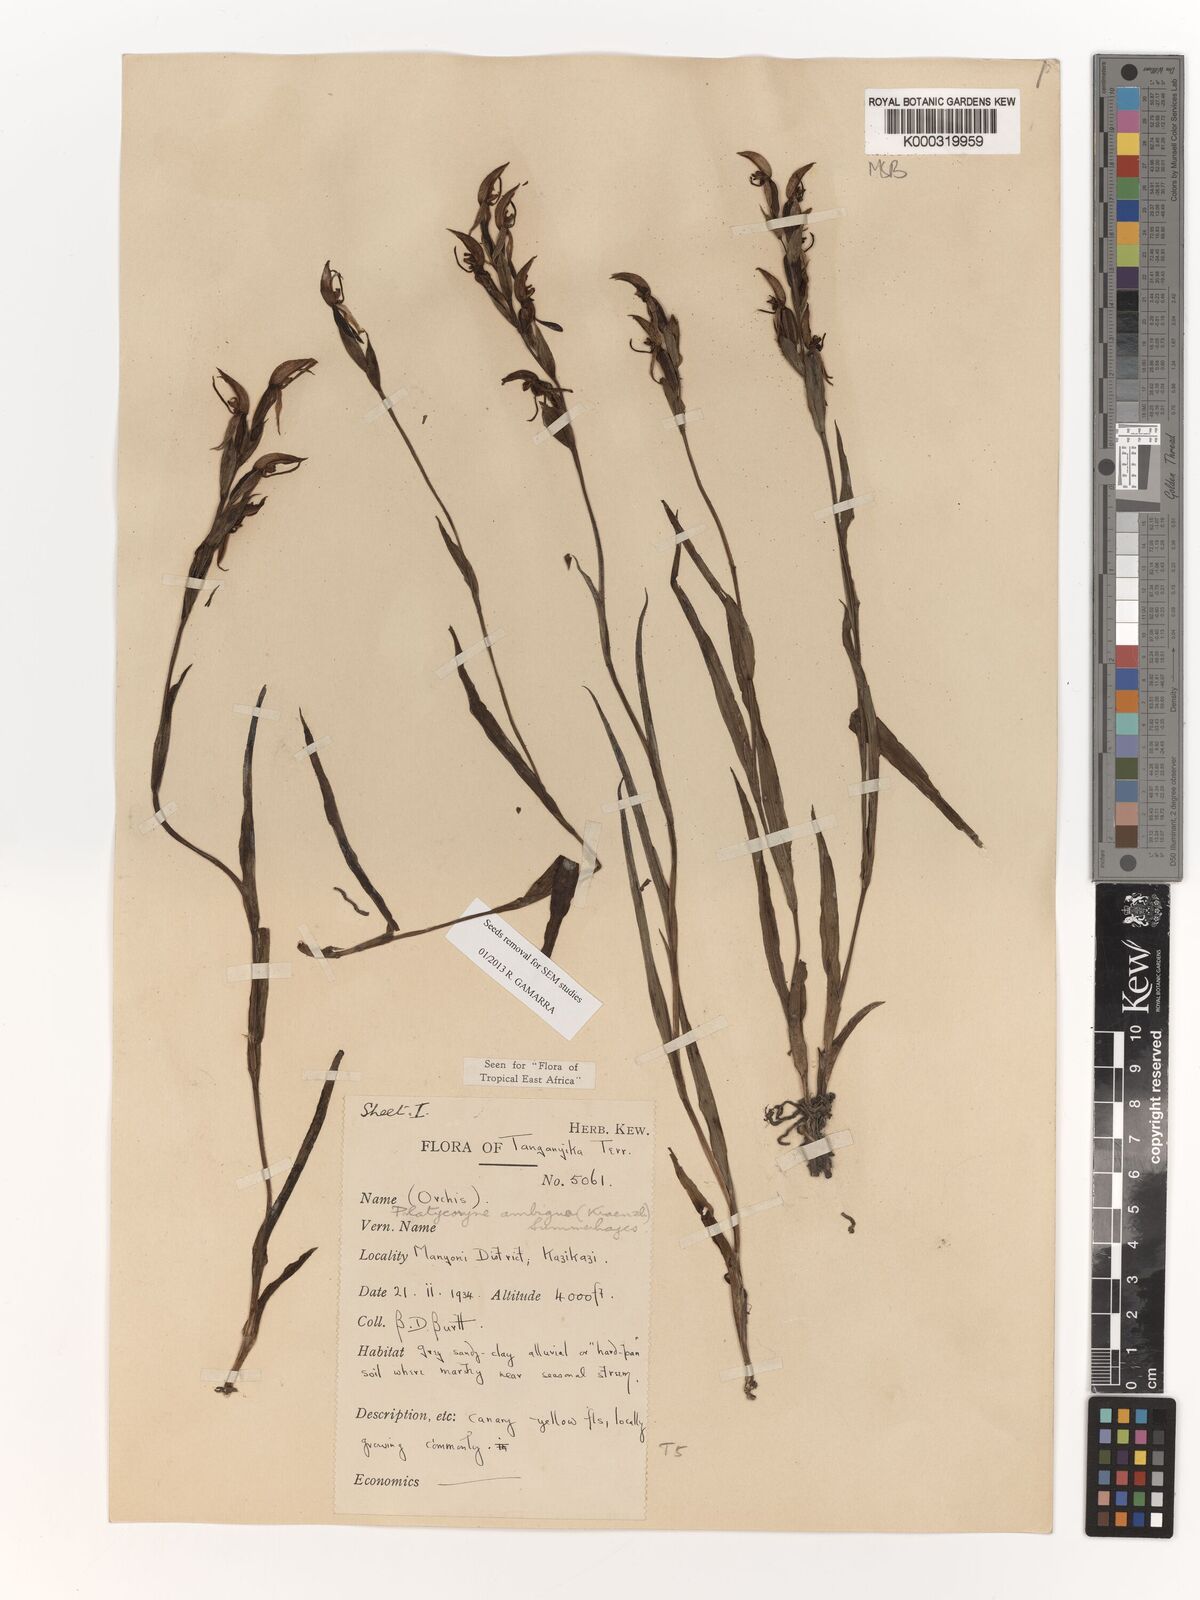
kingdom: Plantae
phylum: Tracheophyta
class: Liliopsida
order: Asparagales
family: Orchidaceae
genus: Platycoryne
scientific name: Platycoryne ambigua
